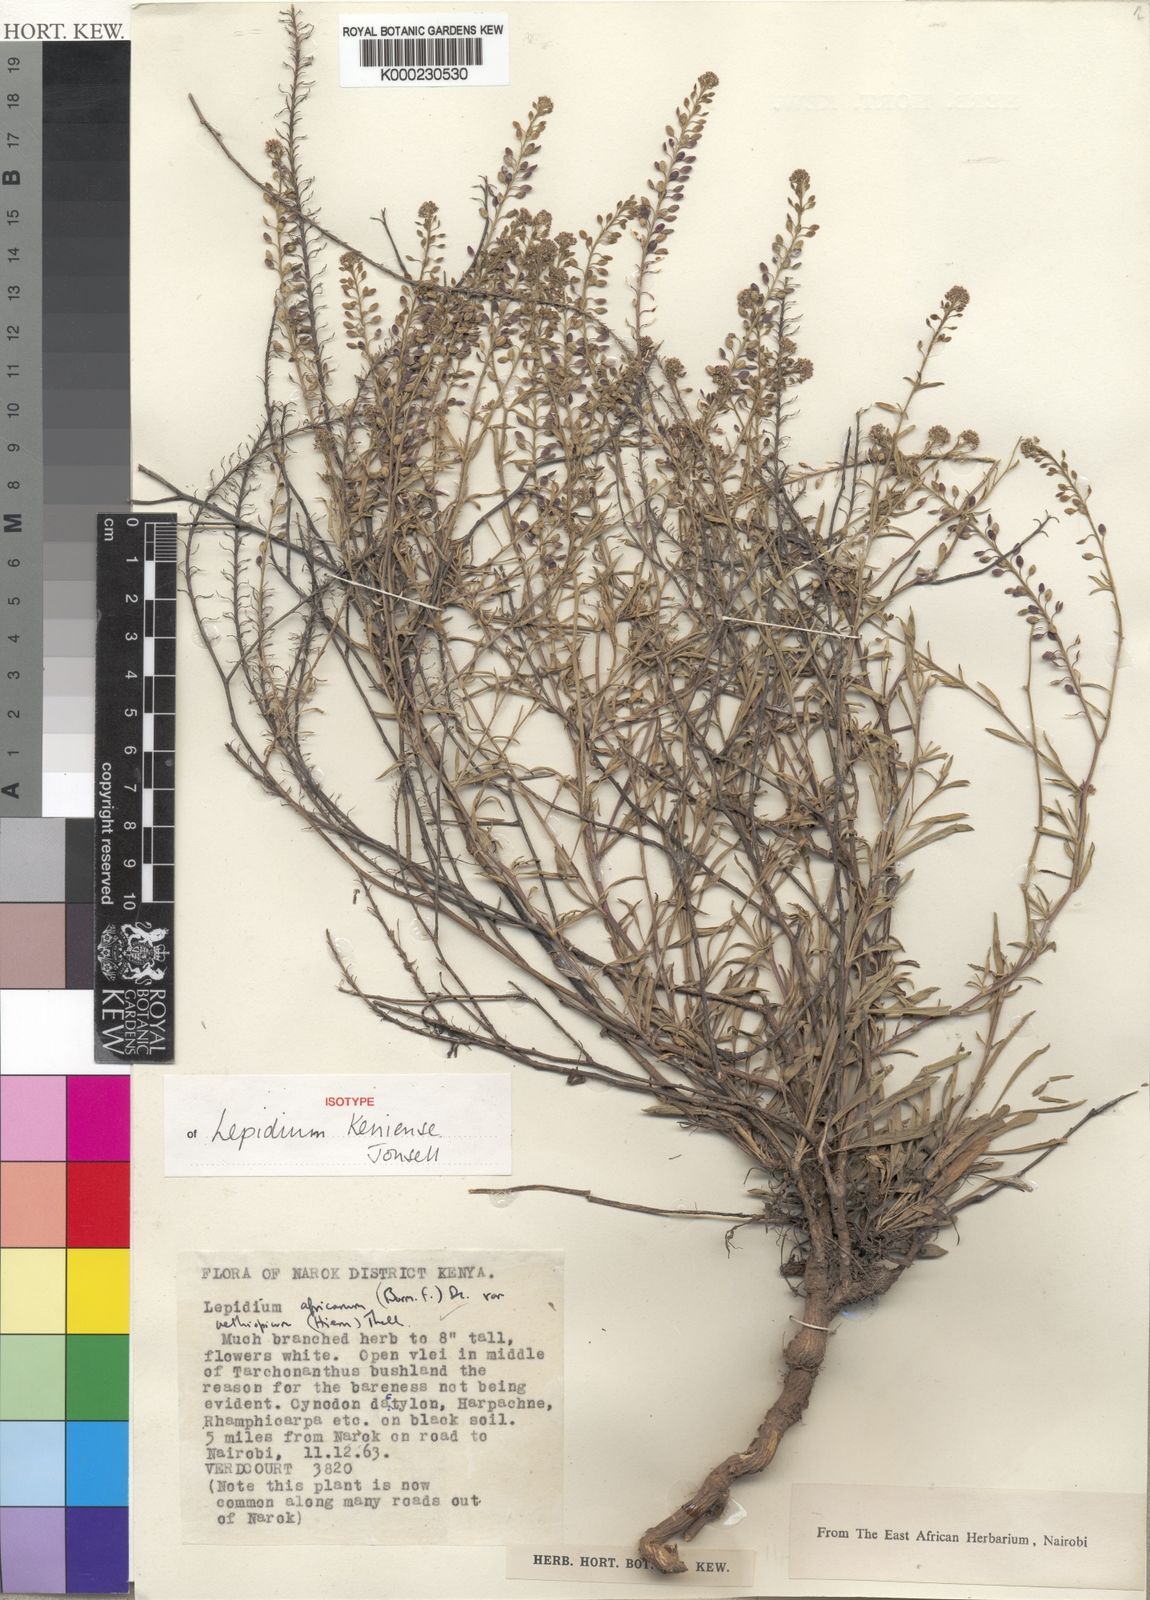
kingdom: Plantae
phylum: Tracheophyta
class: Magnoliopsida
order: Brassicales
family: Brassicaceae
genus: Lepidium
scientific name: Lepidium keniense
